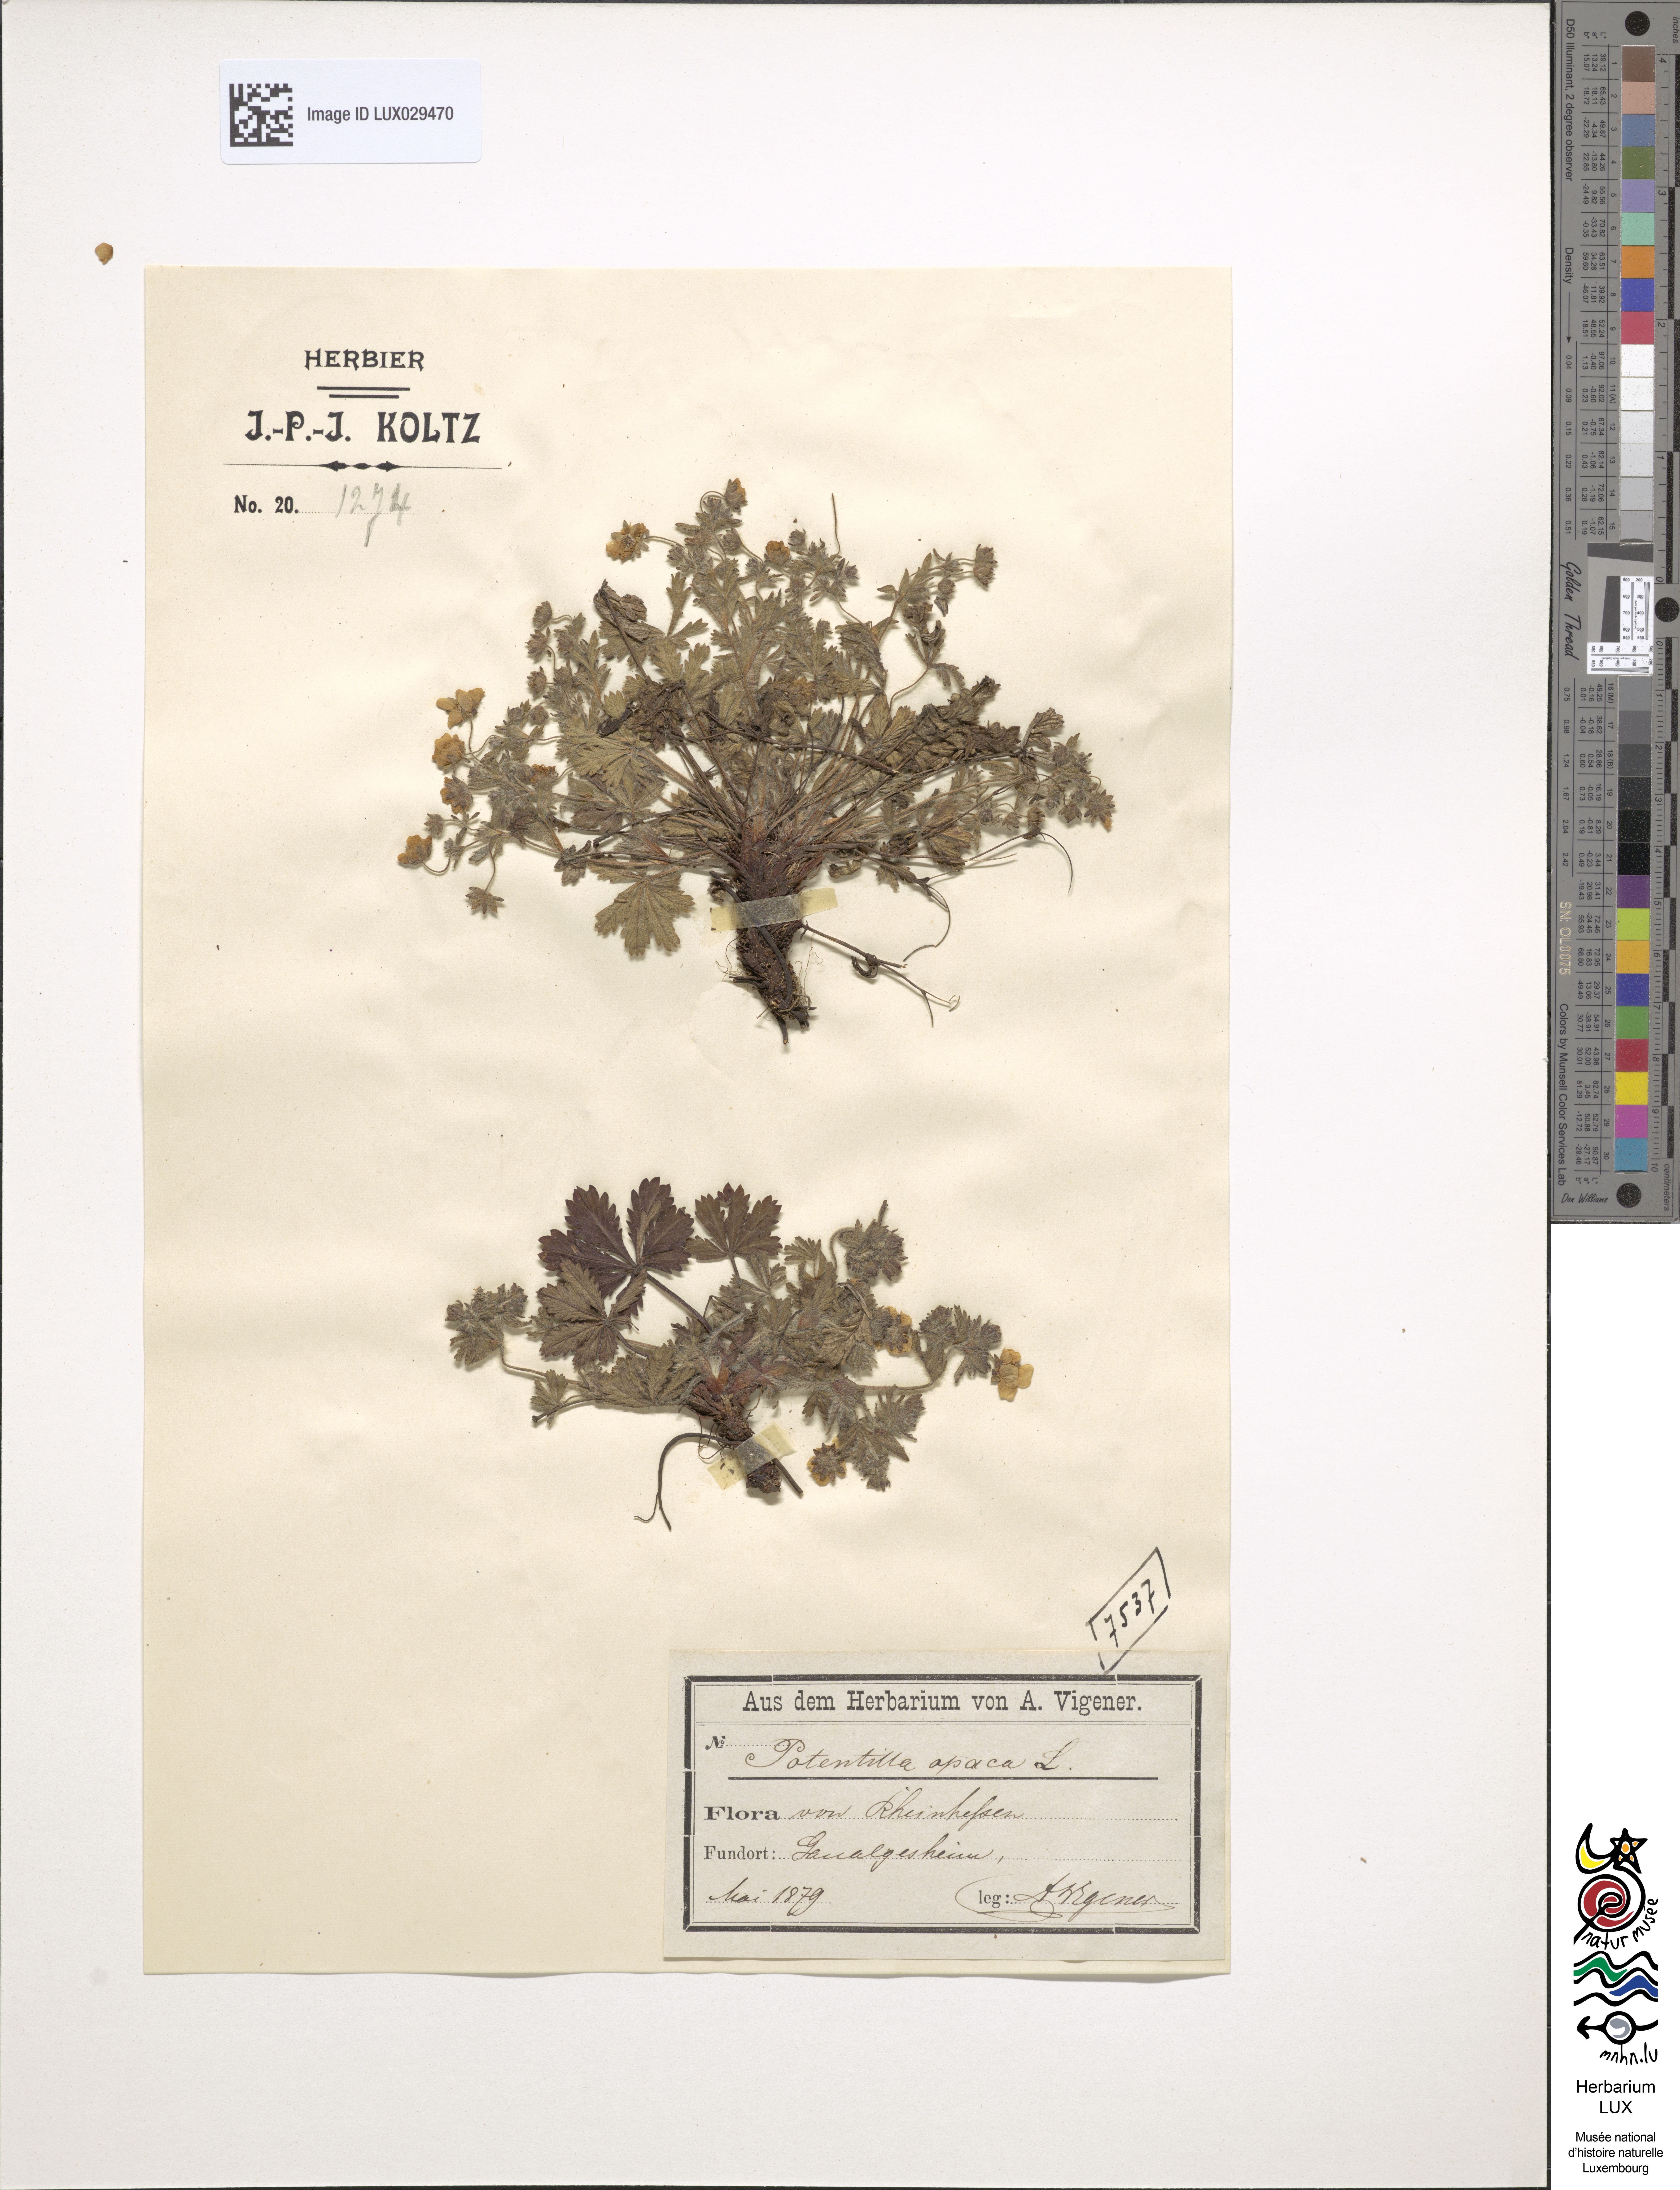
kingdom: Plantae
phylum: Tracheophyta
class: Magnoliopsida
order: Rosales
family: Rosaceae
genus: Potentilla
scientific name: Potentilla heptaphylla
